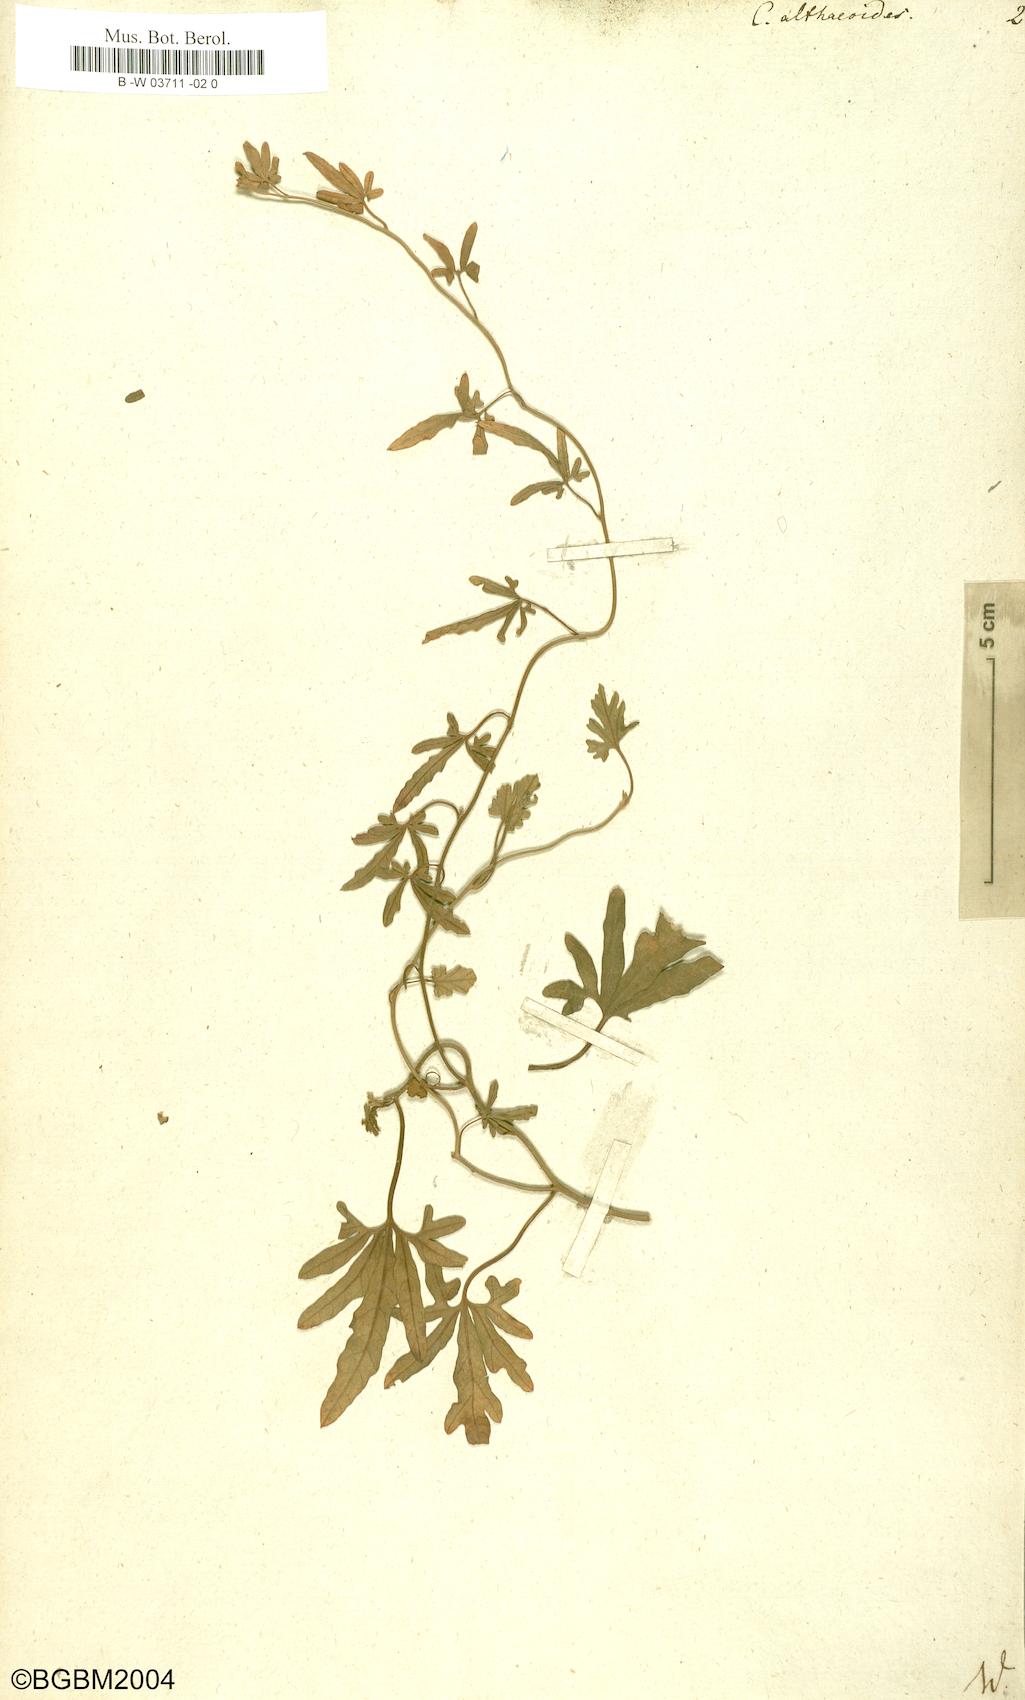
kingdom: Plantae
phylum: Tracheophyta
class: Magnoliopsida
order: Solanales
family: Convolvulaceae
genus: Convolvulus
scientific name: Convolvulus althaeoides
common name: Mallow bindweed
